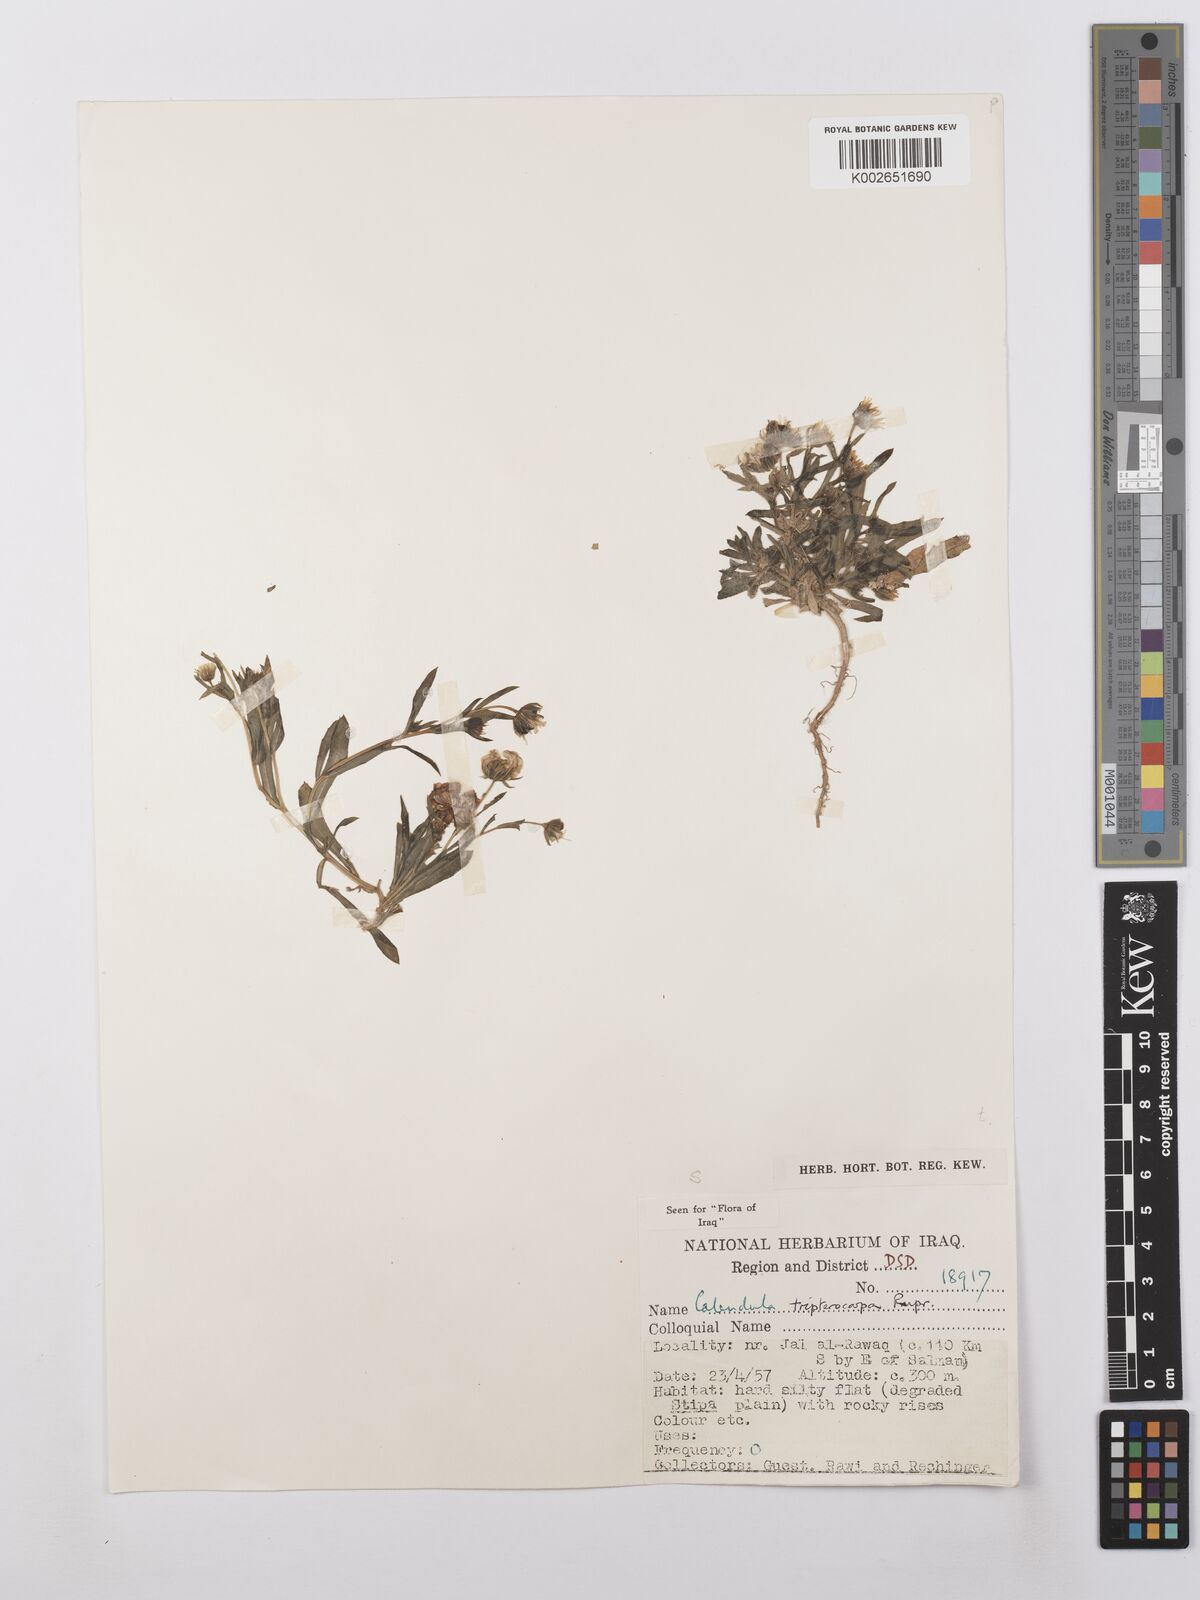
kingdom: Plantae
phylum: Tracheophyta
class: Magnoliopsida
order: Asterales
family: Asteraceae
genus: Calendula
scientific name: Calendula tripterocarpa
